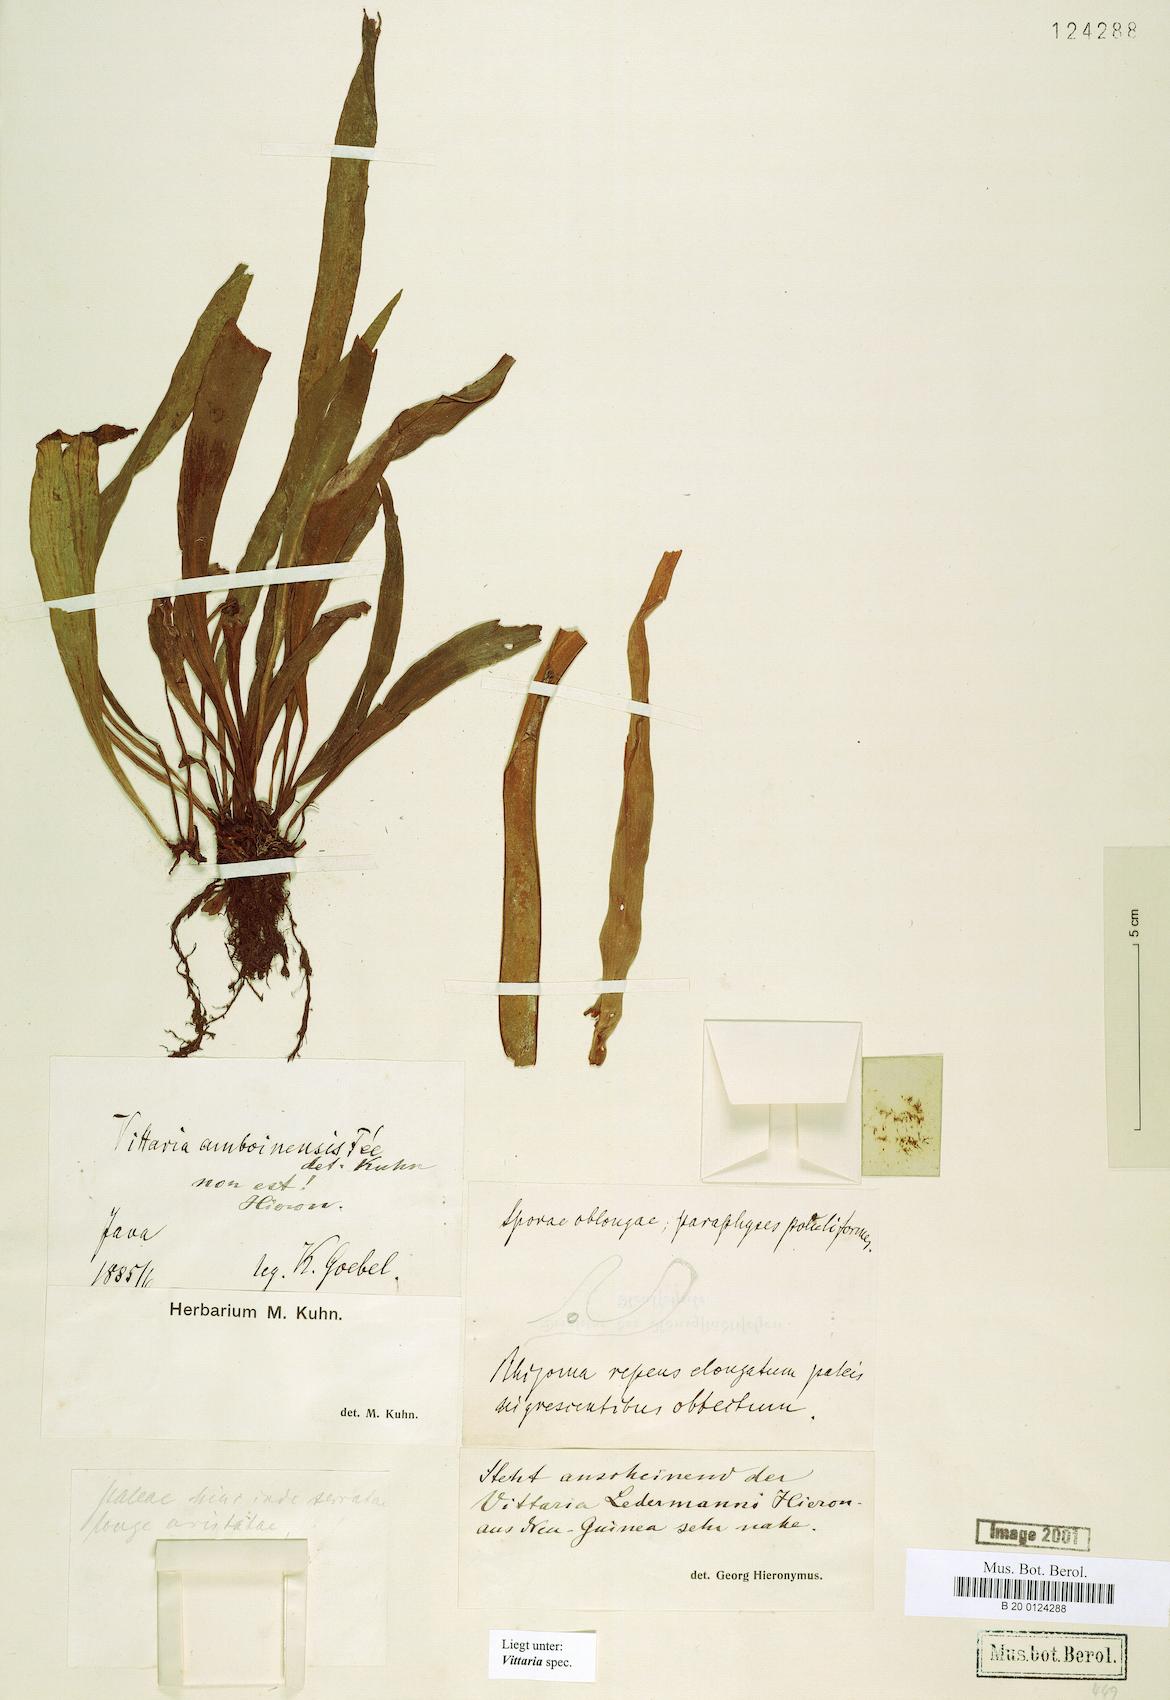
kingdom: Plantae
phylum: Tracheophyta
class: Polypodiopsida
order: Polypodiales
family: Pteridaceae
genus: Vittaria
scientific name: Vittaria
